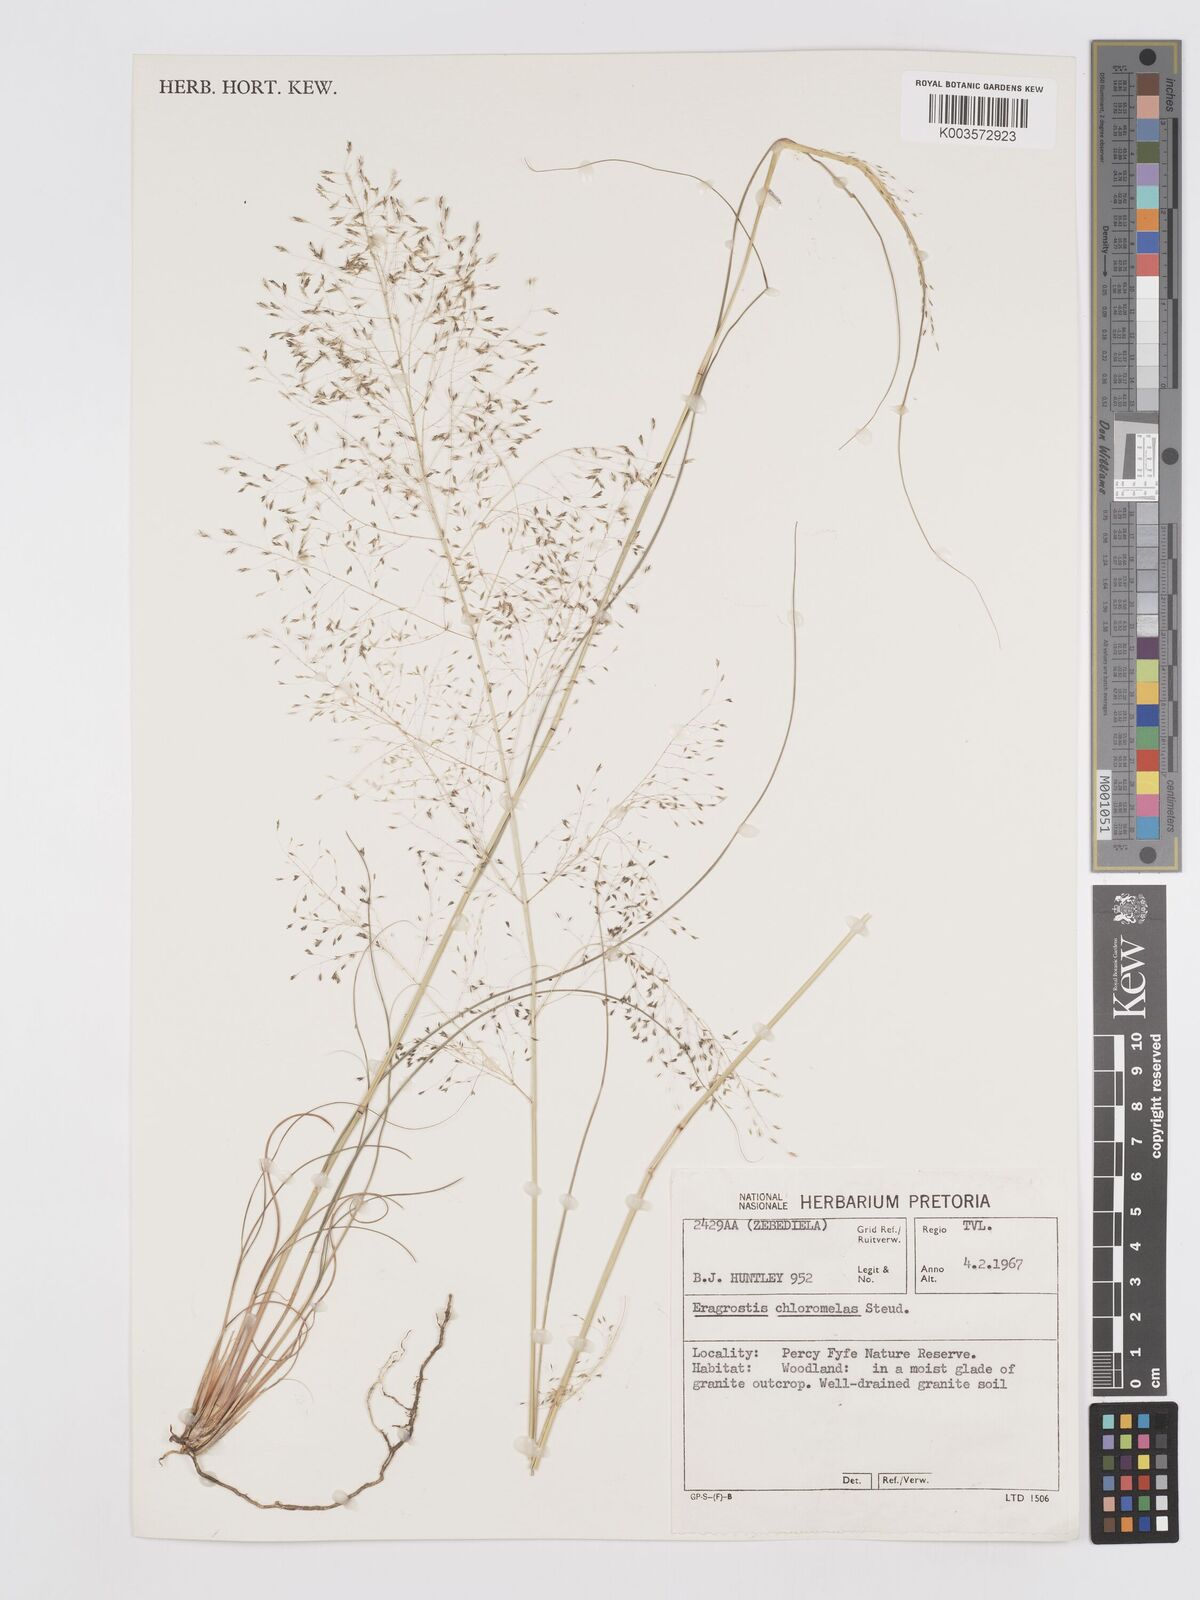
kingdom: Plantae
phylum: Tracheophyta
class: Liliopsida
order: Poales
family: Poaceae
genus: Eragrostis
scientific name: Eragrostis curvula
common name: African love-grass
